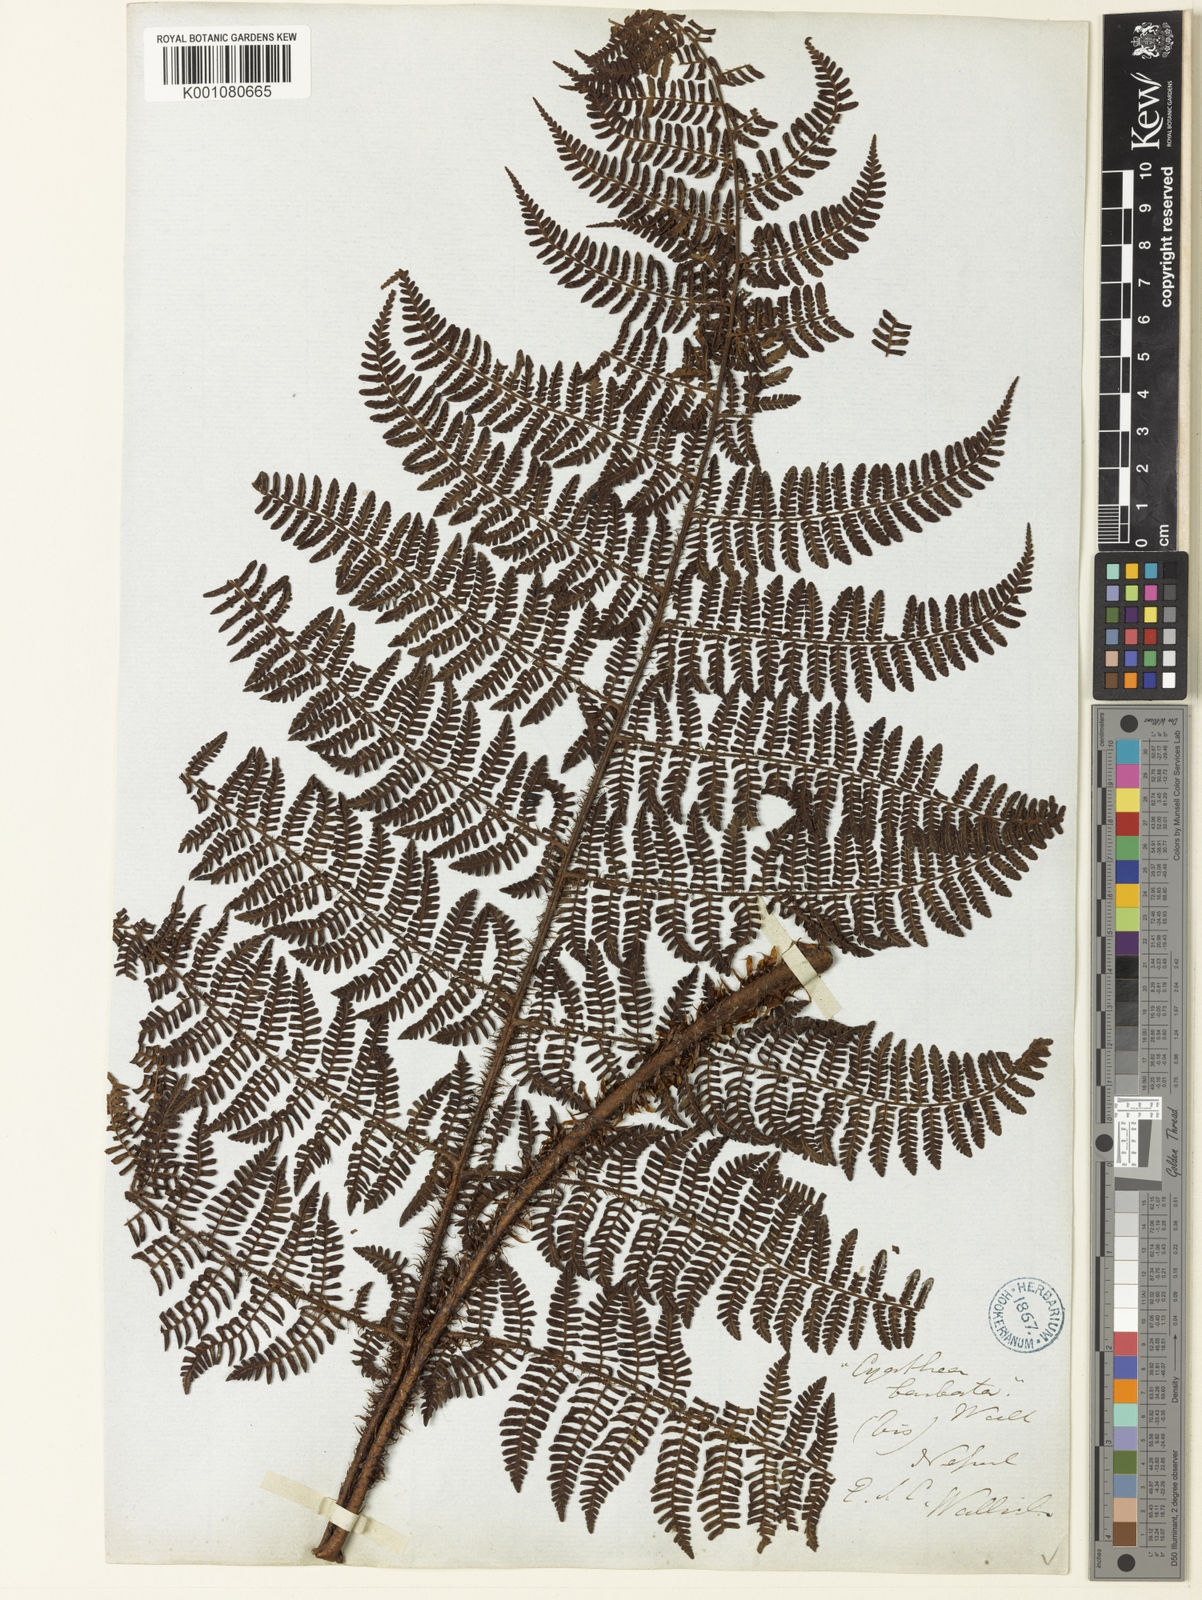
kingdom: Plantae
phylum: Tracheophyta
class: Polypodiopsida
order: Polypodiales
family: Dryopteridaceae
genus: Dryopteris
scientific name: Dryopteris peranema
